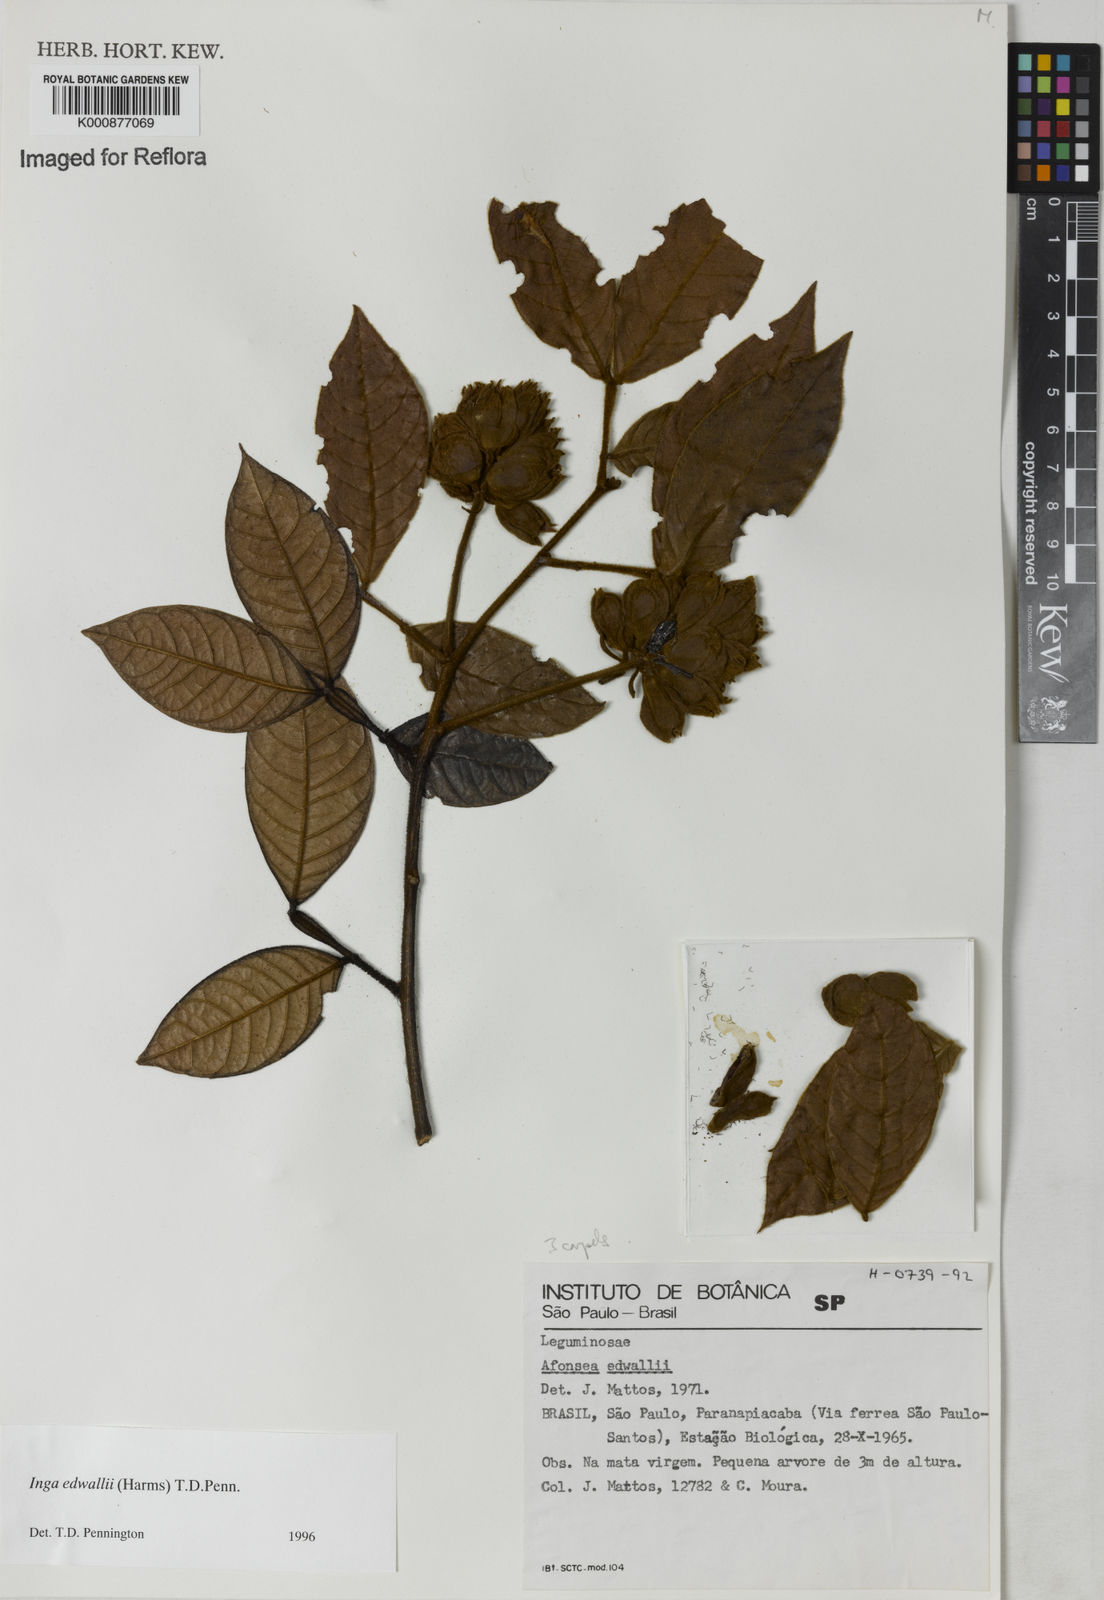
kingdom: Plantae
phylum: Tracheophyta
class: Magnoliopsida
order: Fabales
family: Fabaceae
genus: Inga
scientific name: Inga edwallii
